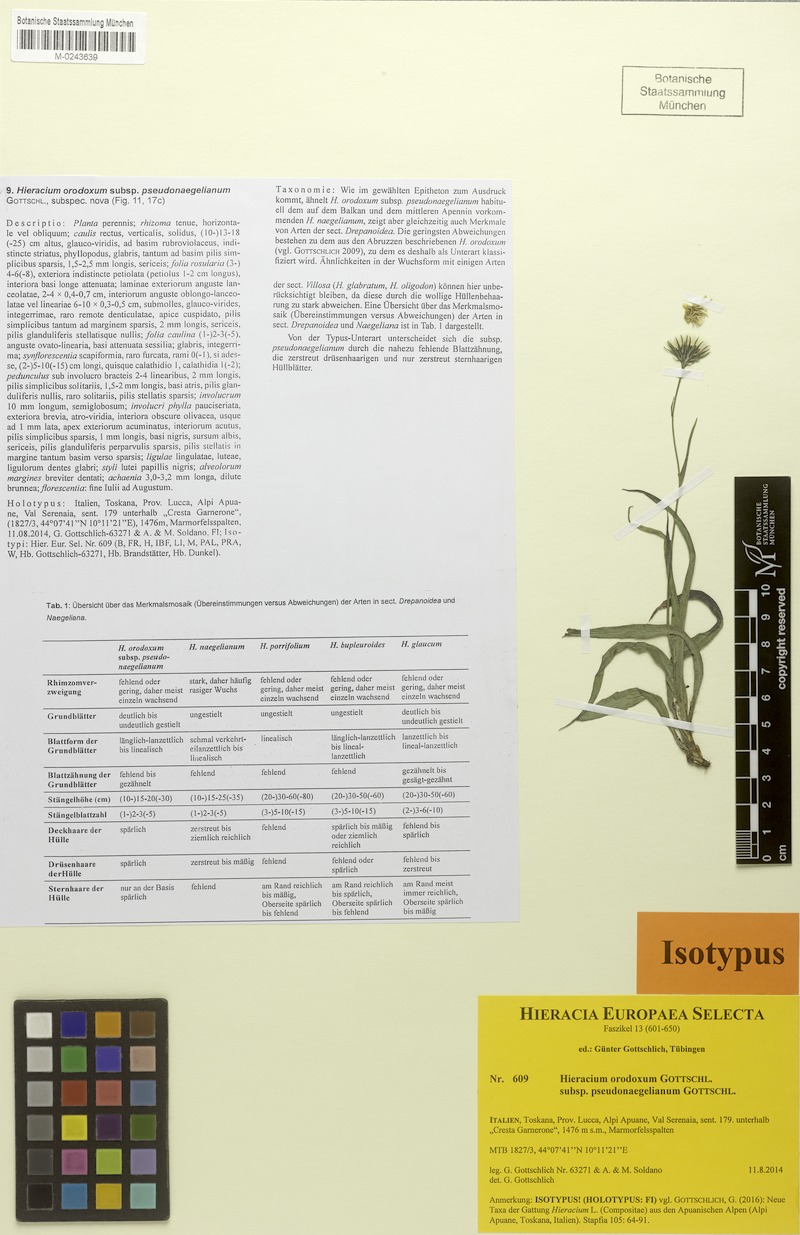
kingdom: Plantae
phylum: Tracheophyta
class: Magnoliopsida
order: Asterales
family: Asteraceae
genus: Hieracium
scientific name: Hieracium orodoxum
